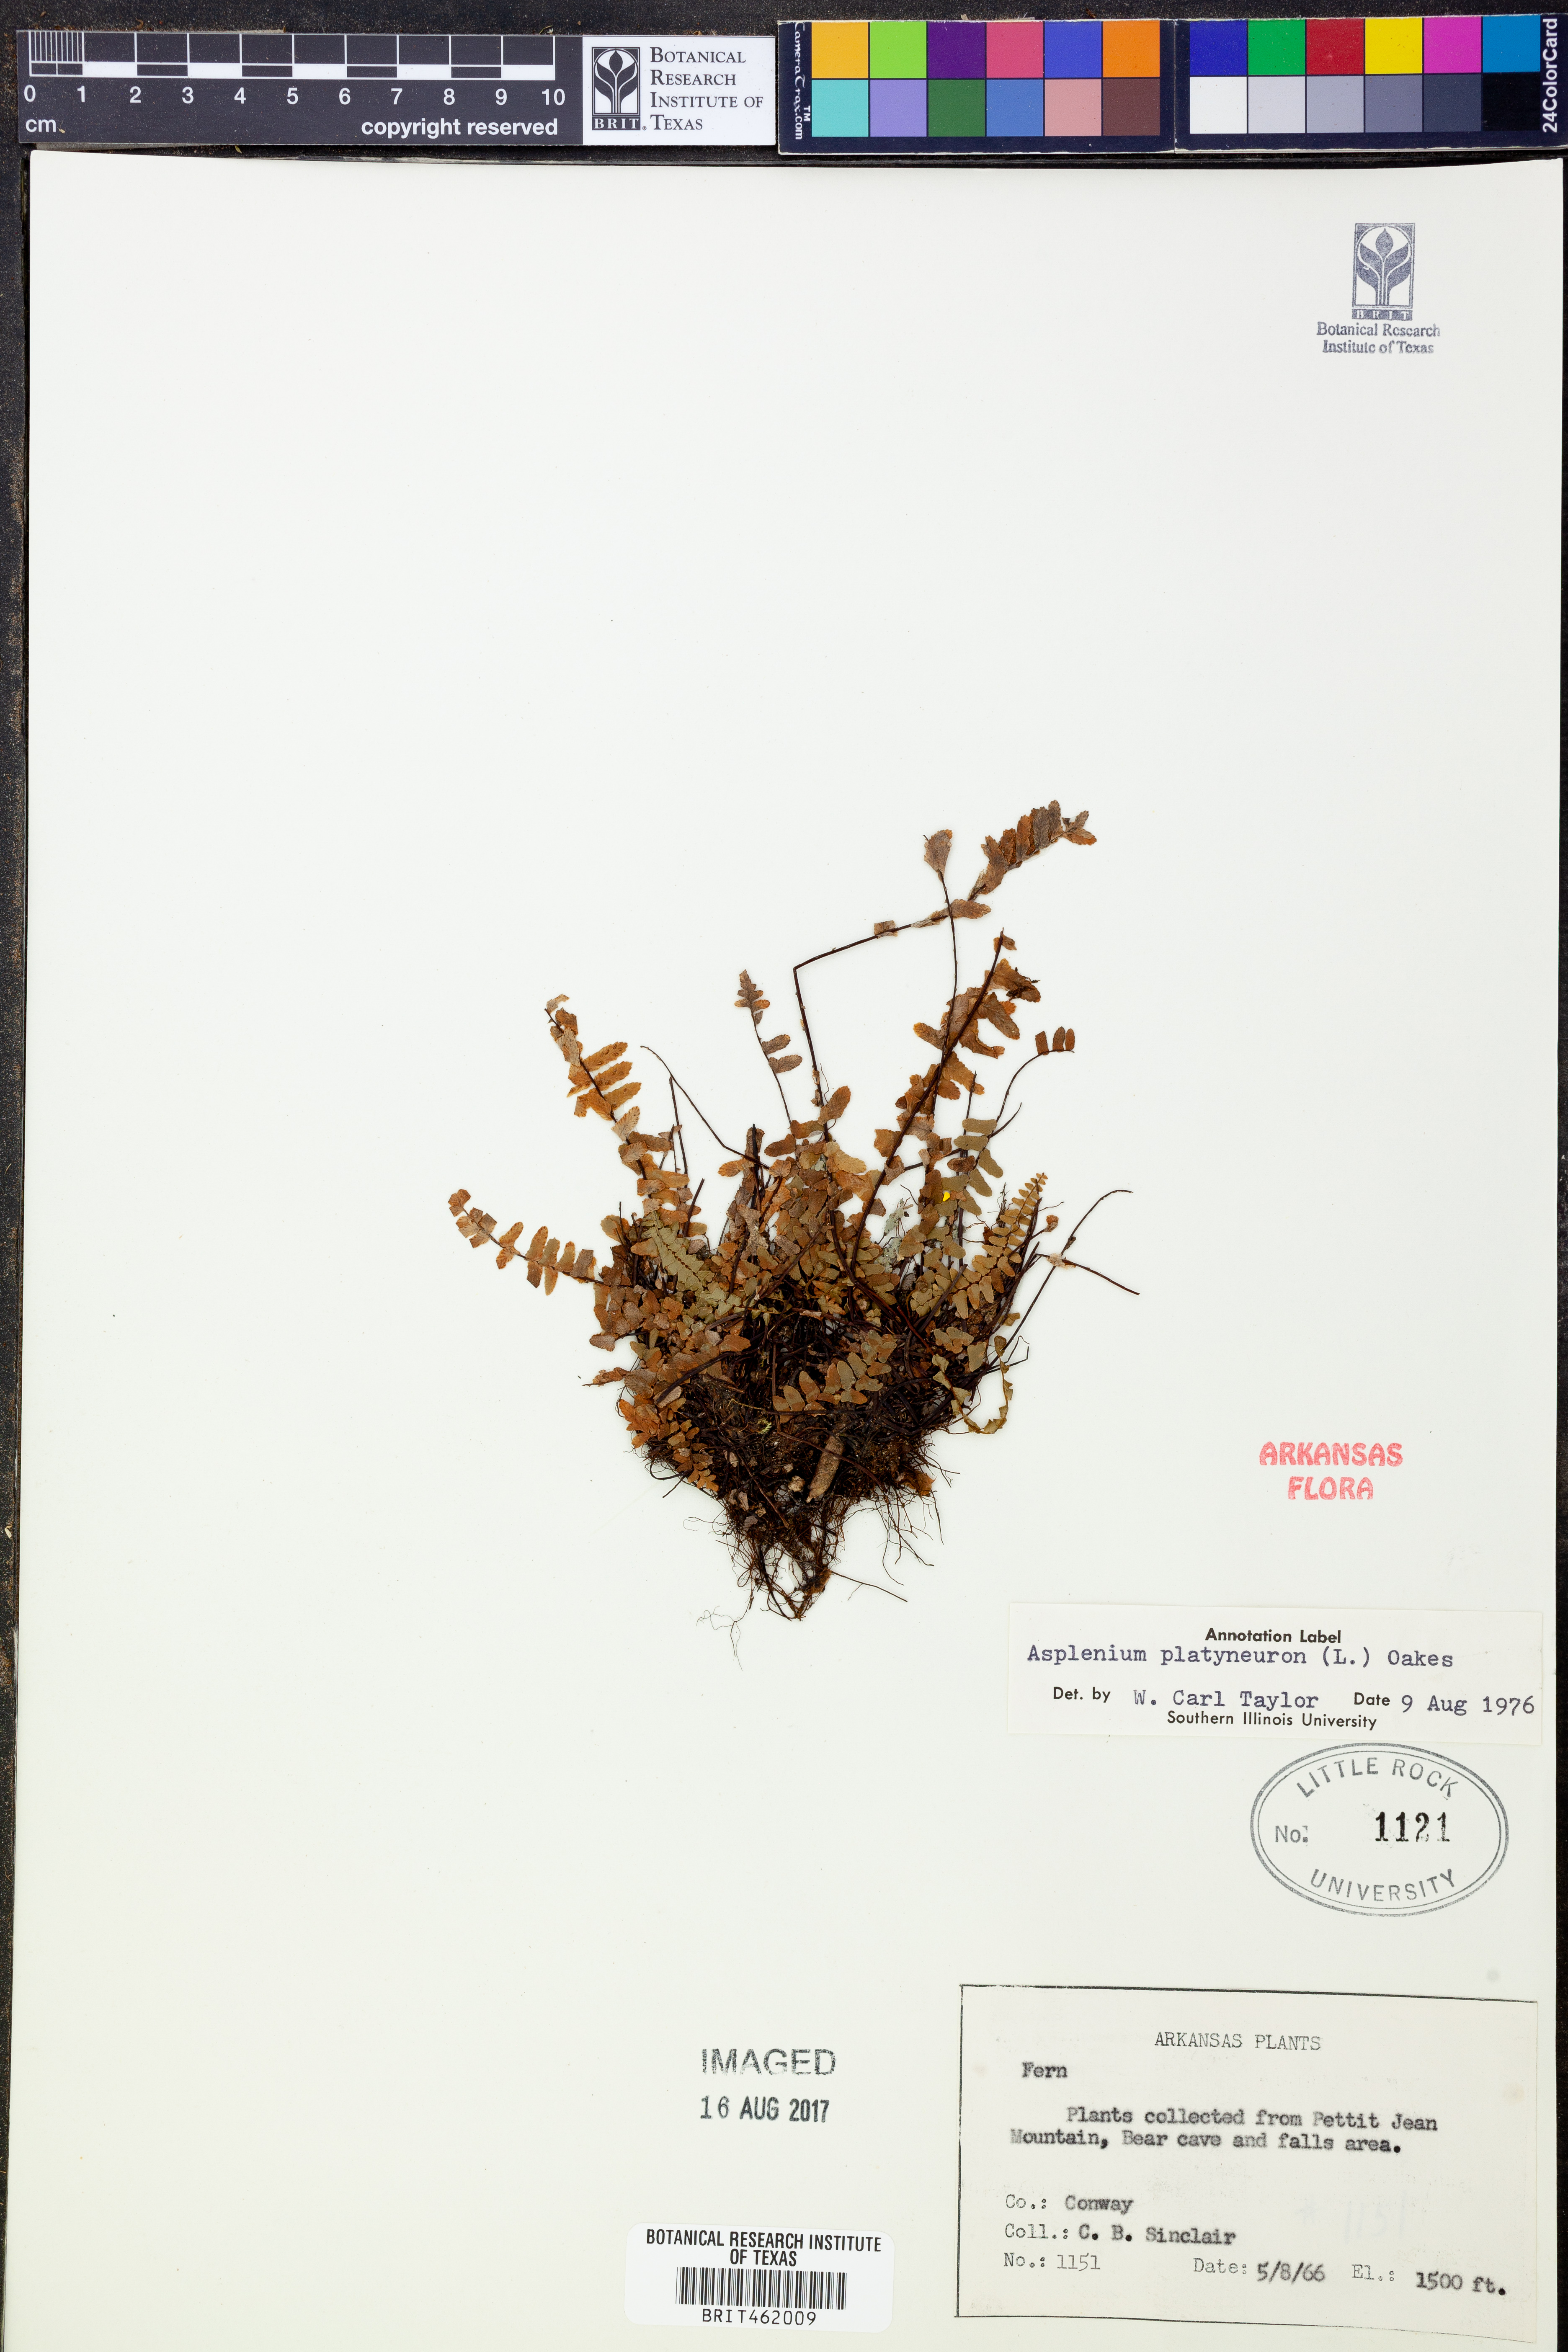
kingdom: Plantae
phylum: Tracheophyta
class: Polypodiopsida
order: Polypodiales
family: Aspleniaceae
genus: Asplenium
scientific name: Asplenium platyneuron
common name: Ebony spleenwort
